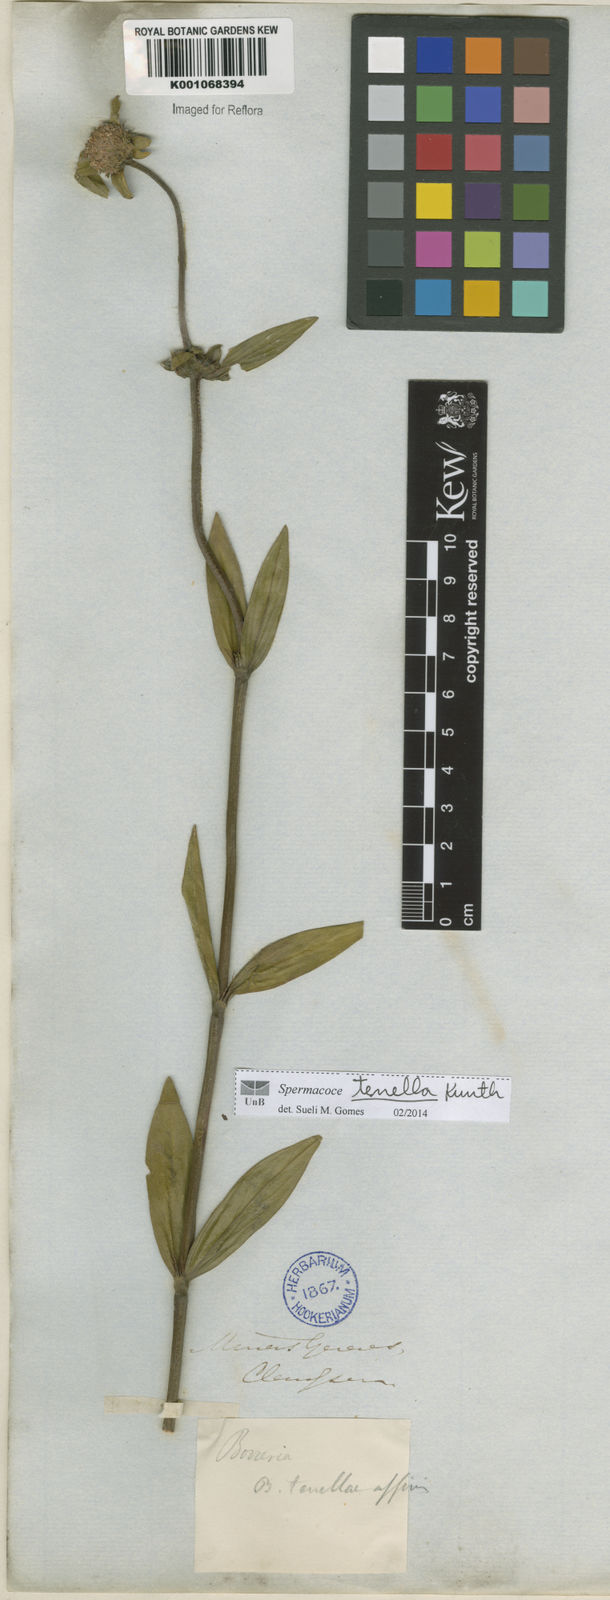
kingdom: Plantae
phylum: Tracheophyta
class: Magnoliopsida
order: Gentianales
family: Rubiaceae
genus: Spermacoce
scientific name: Spermacoce orinocensis
